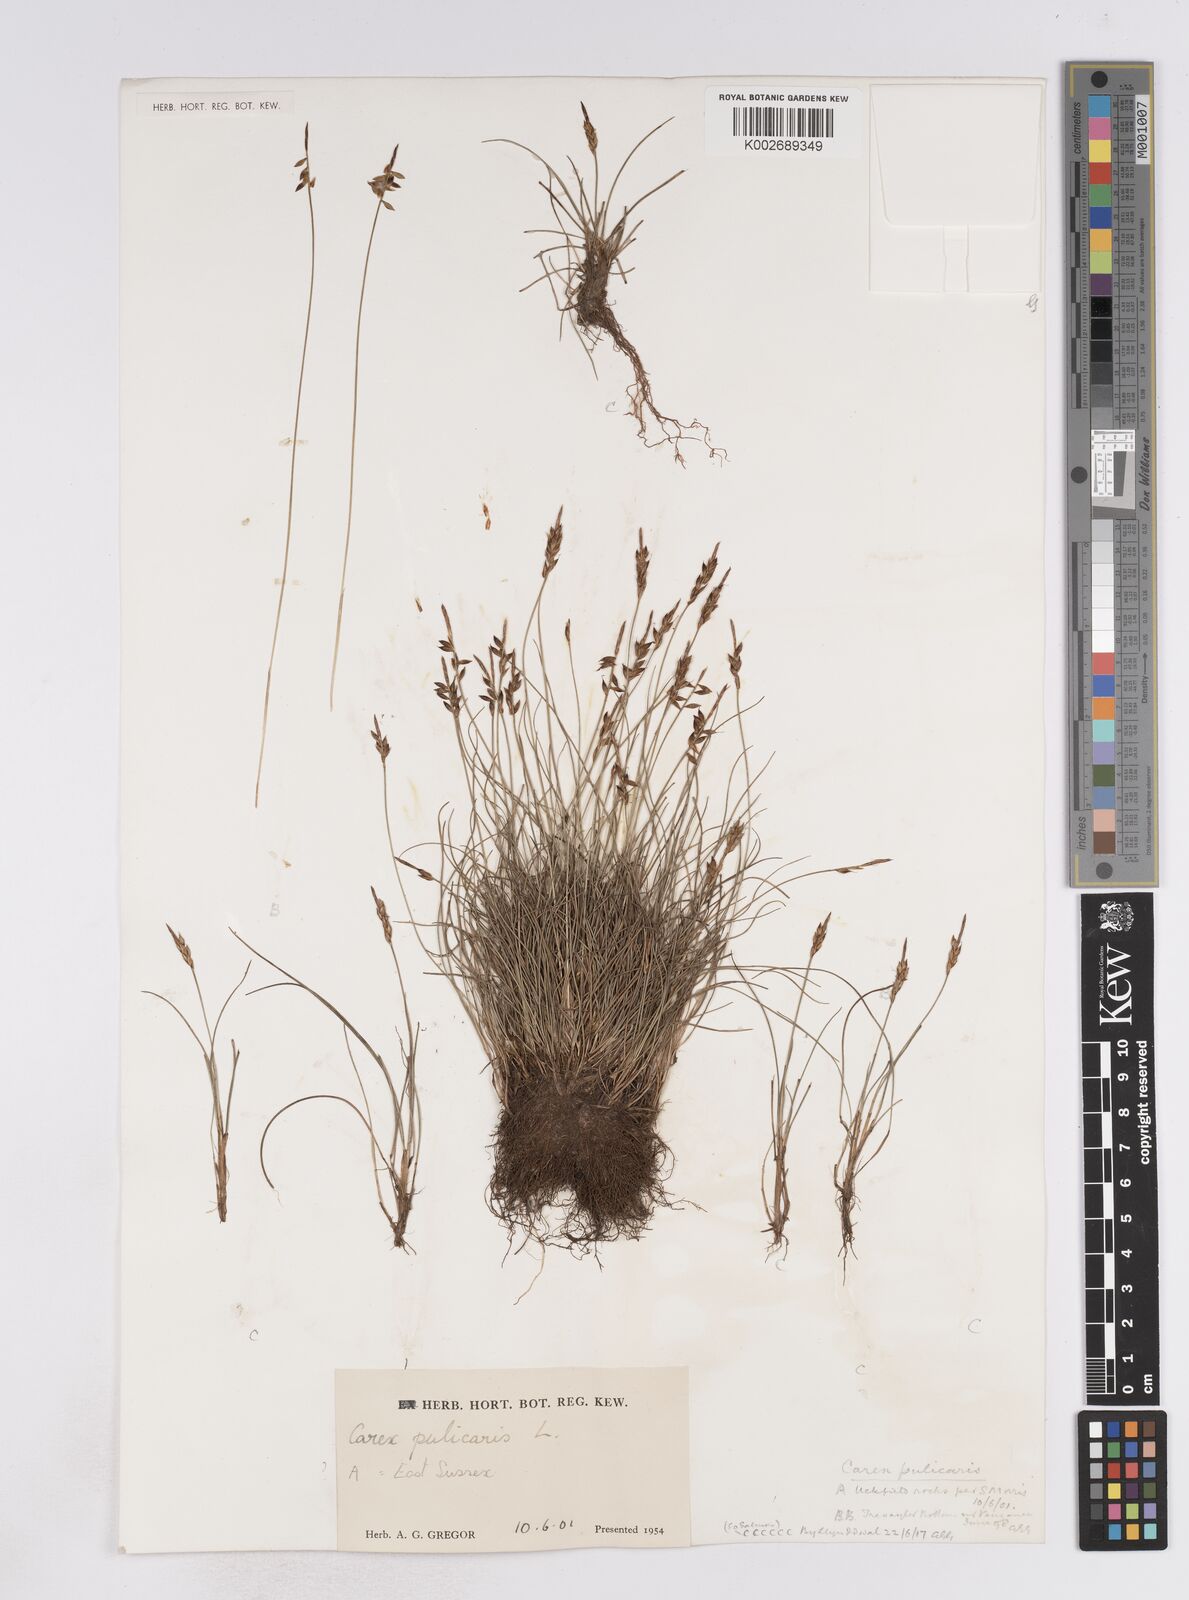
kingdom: Plantae
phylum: Tracheophyta
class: Liliopsida
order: Poales
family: Cyperaceae
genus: Carex
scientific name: Carex flacca
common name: Glaucous sedge
